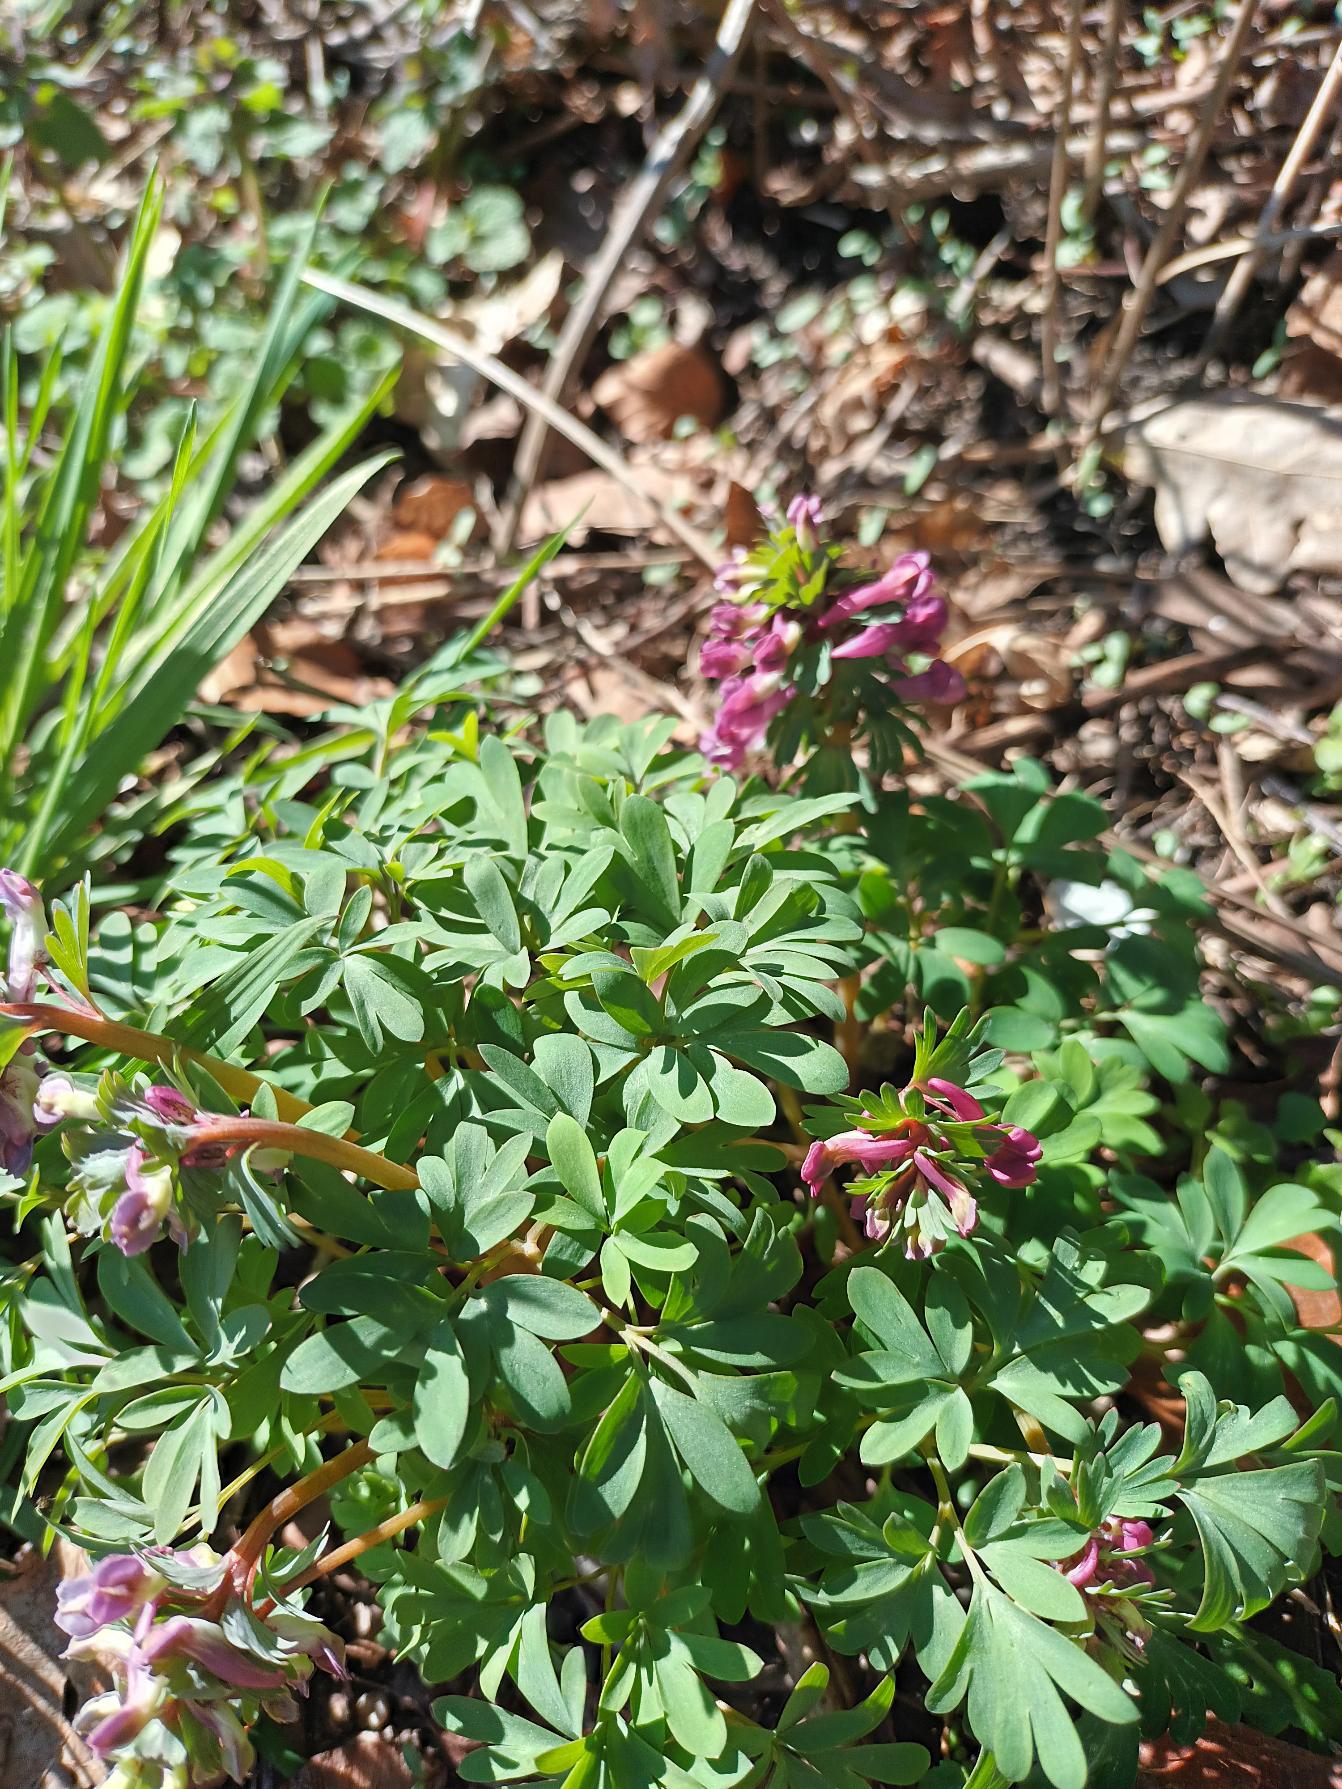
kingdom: Plantae
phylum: Tracheophyta
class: Magnoliopsida
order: Ranunculales
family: Papaveraceae
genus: Corydalis
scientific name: Corydalis solida
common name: Langstilket lærkespore
